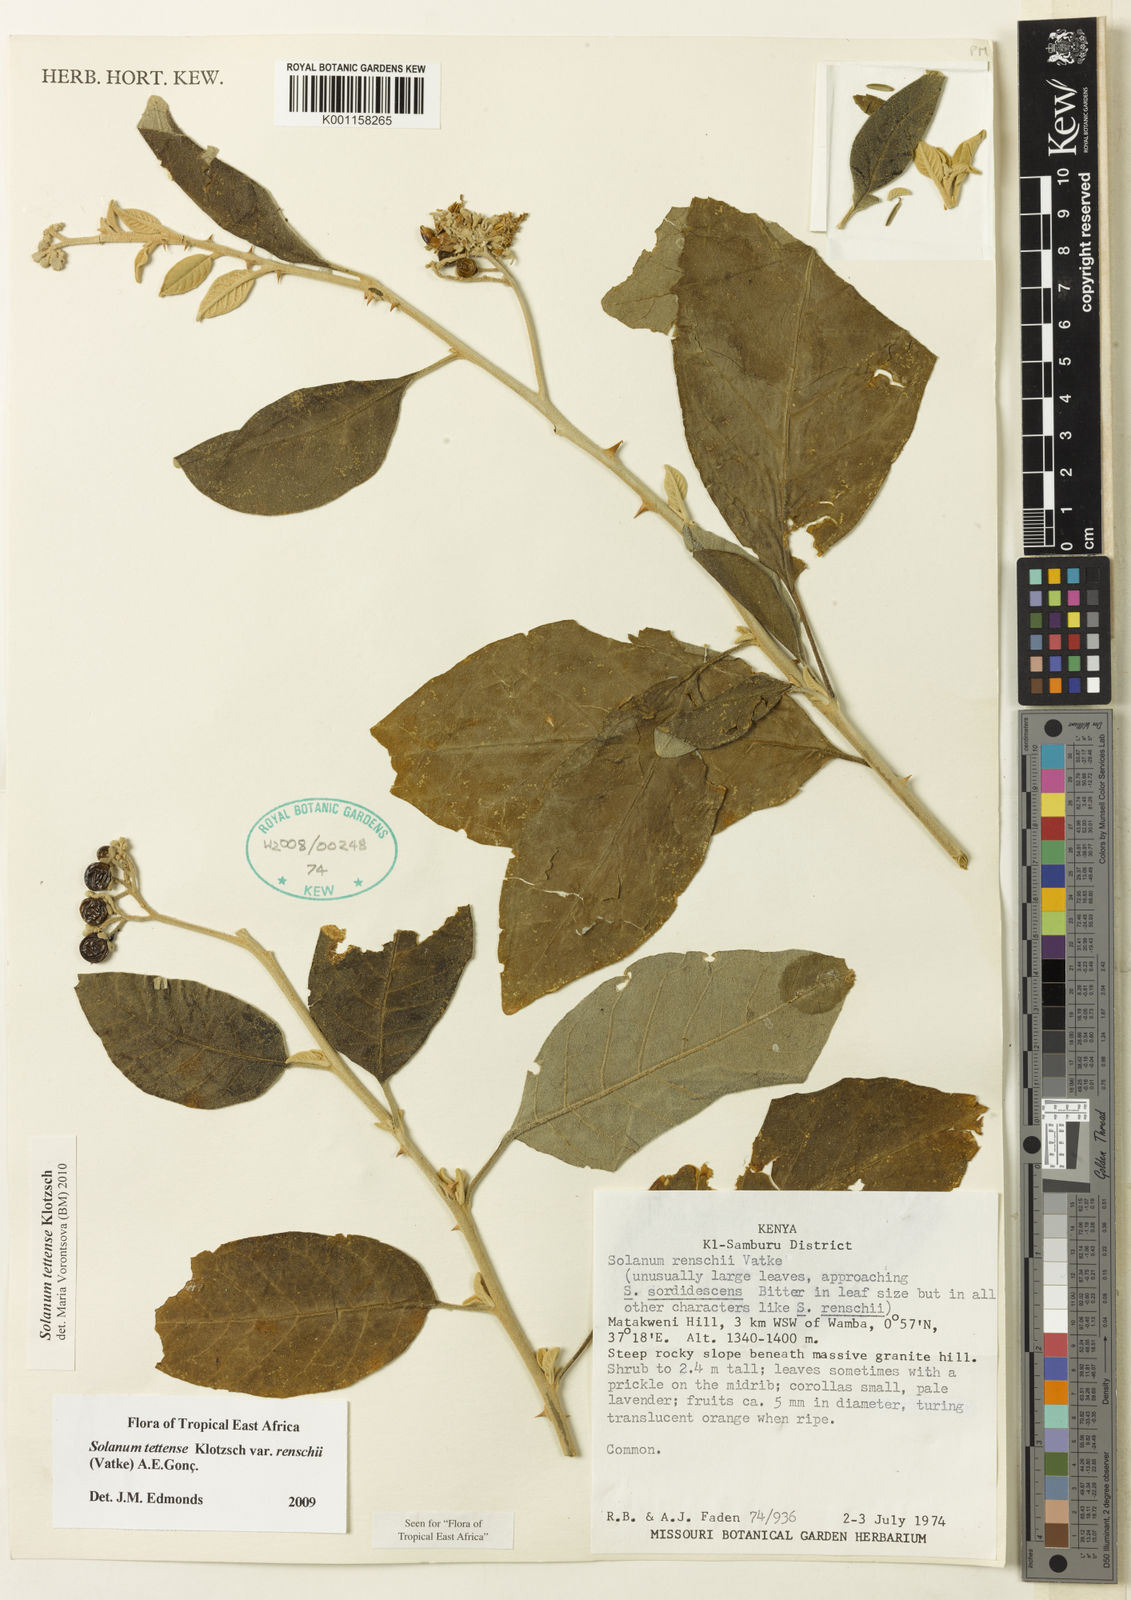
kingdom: Plantae
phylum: Tracheophyta
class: Magnoliopsida
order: Solanales
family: Solanaceae
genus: Solanum
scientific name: Solanum tettense
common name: Mozambique bitter apple
